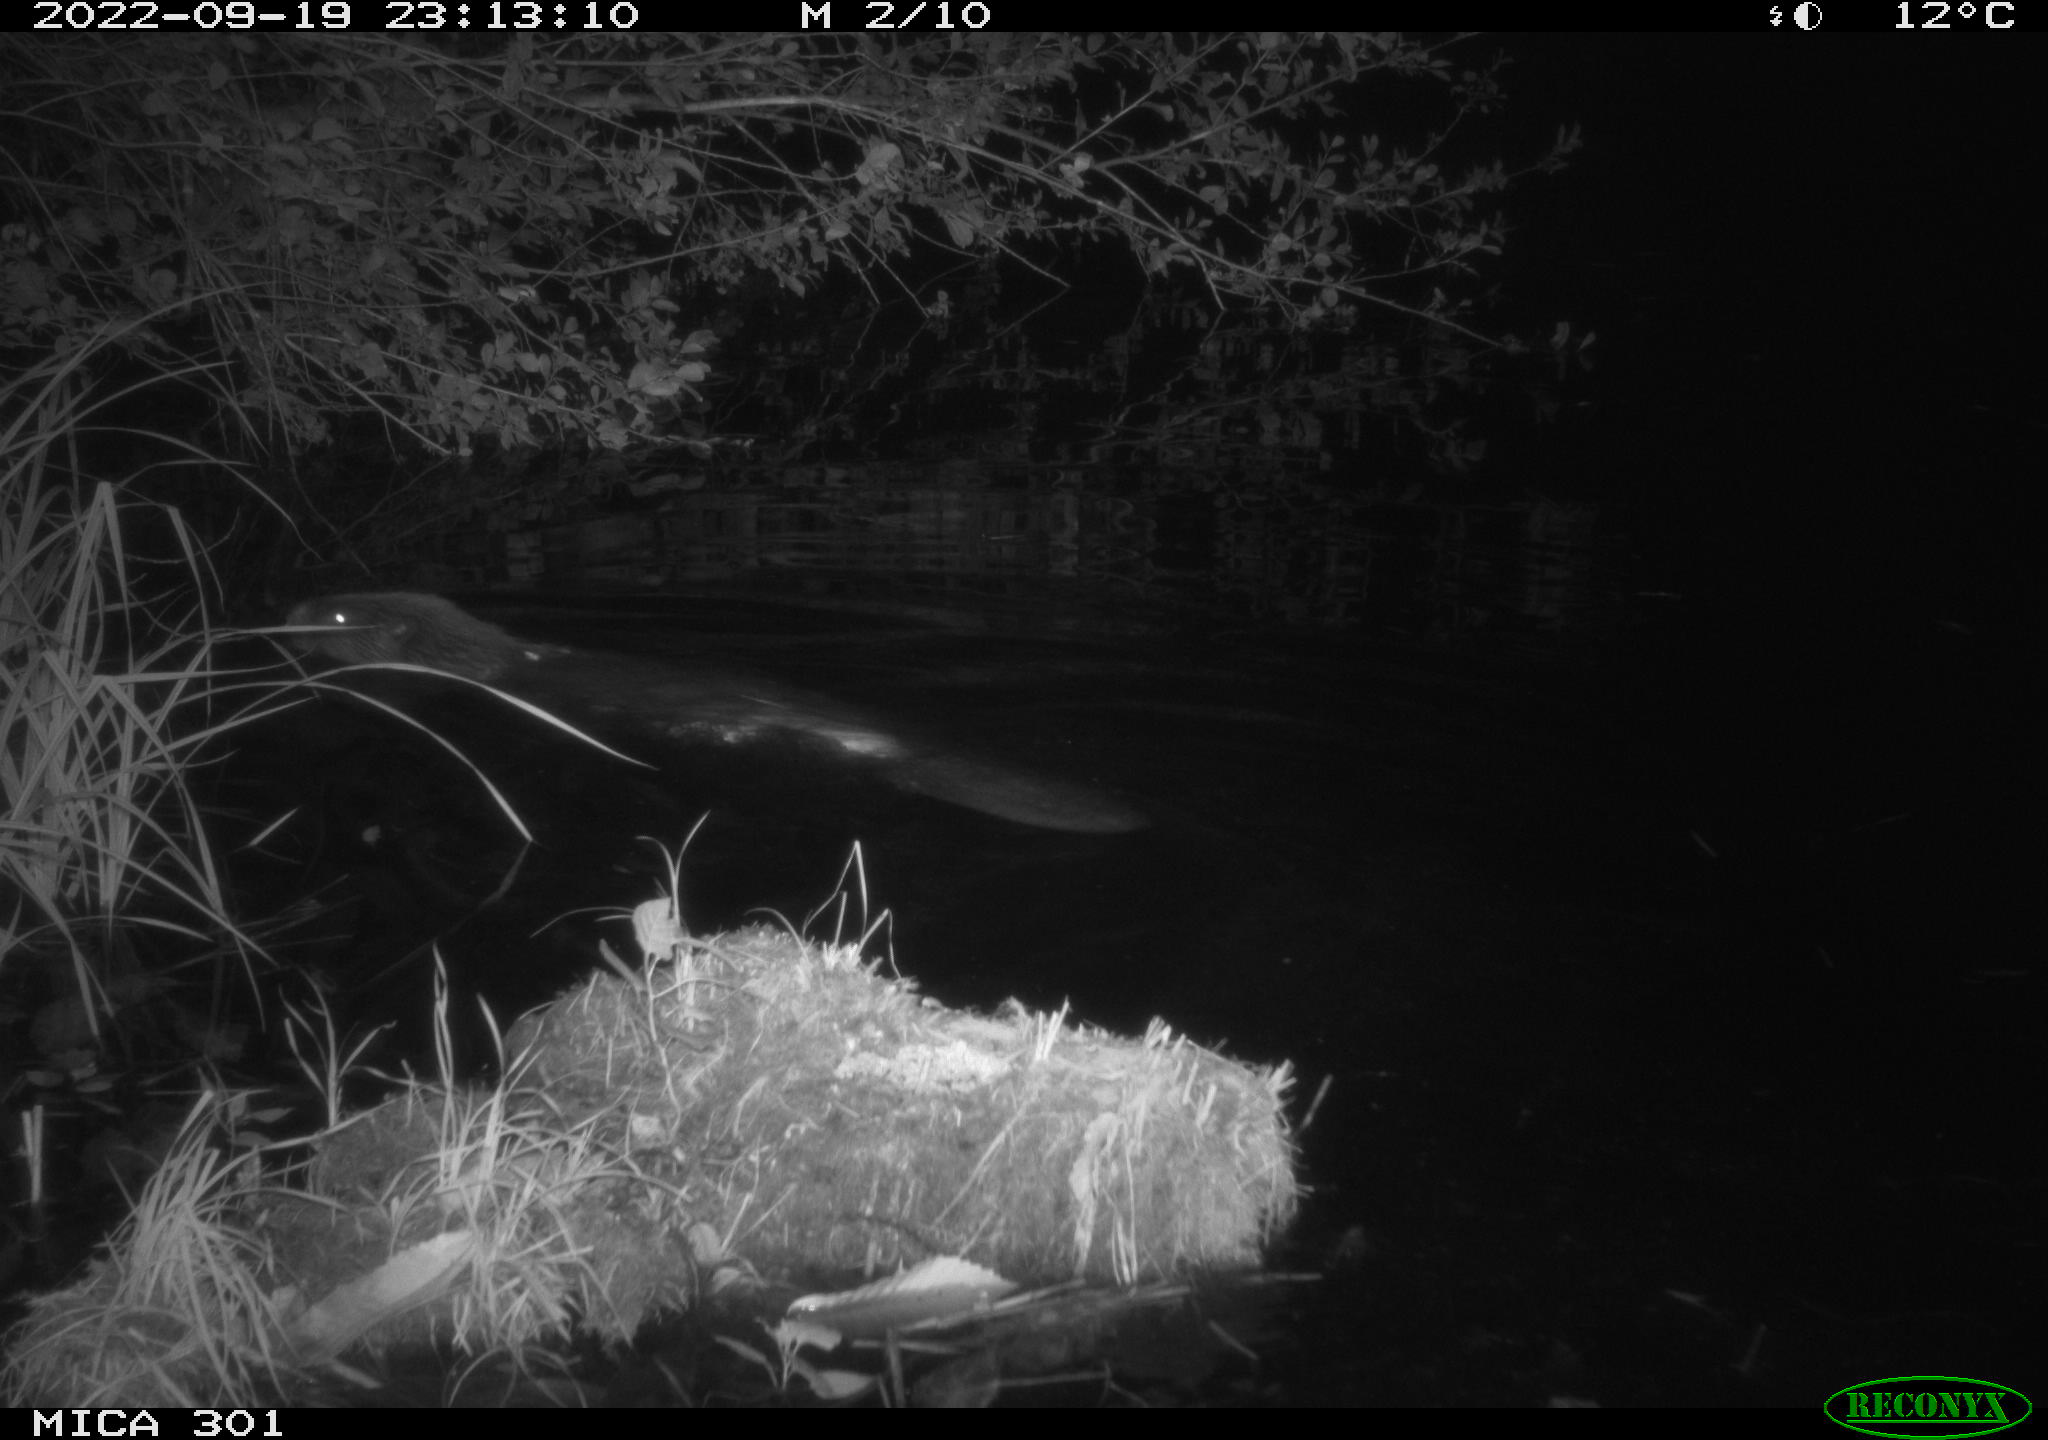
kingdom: Animalia
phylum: Chordata
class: Mammalia
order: Rodentia
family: Castoridae
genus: Castor
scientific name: Castor fiber
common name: Eurasian beaver
